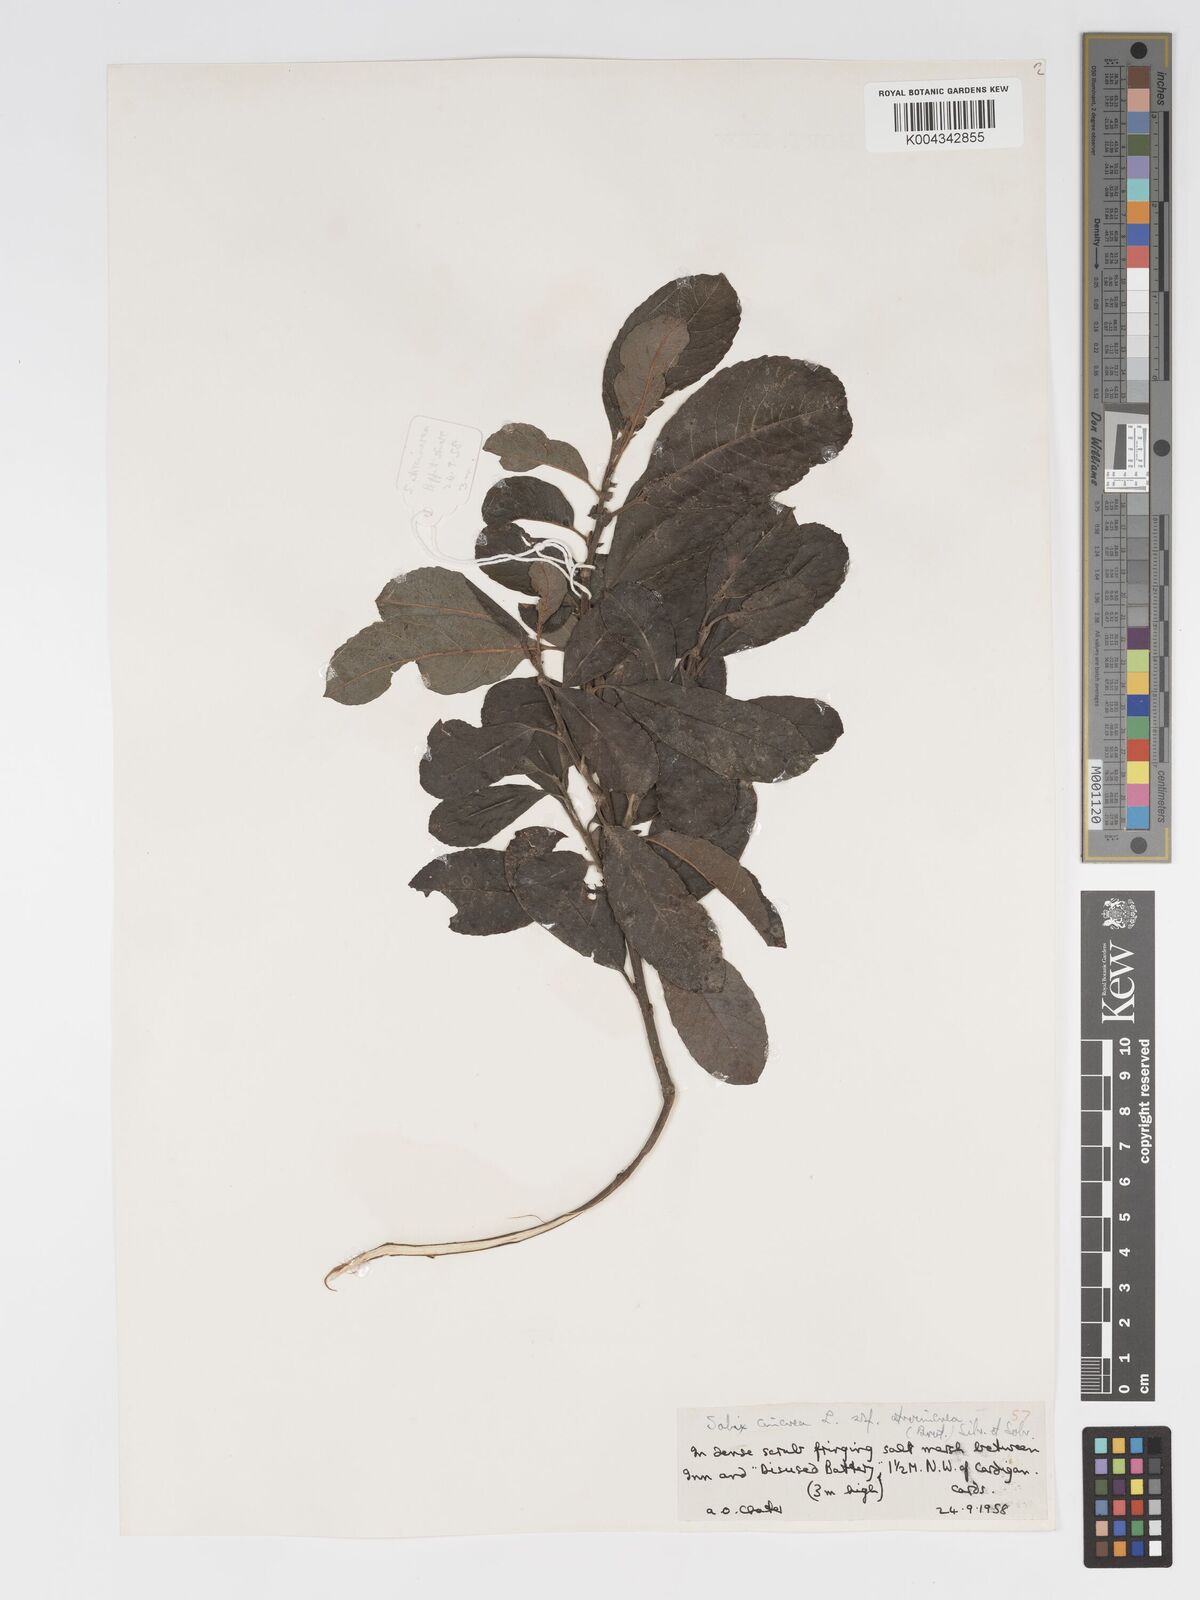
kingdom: Plantae
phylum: Tracheophyta
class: Magnoliopsida
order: Malpighiales
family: Salicaceae
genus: Salix
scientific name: Salix atrocinerea
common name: Rusty willow
